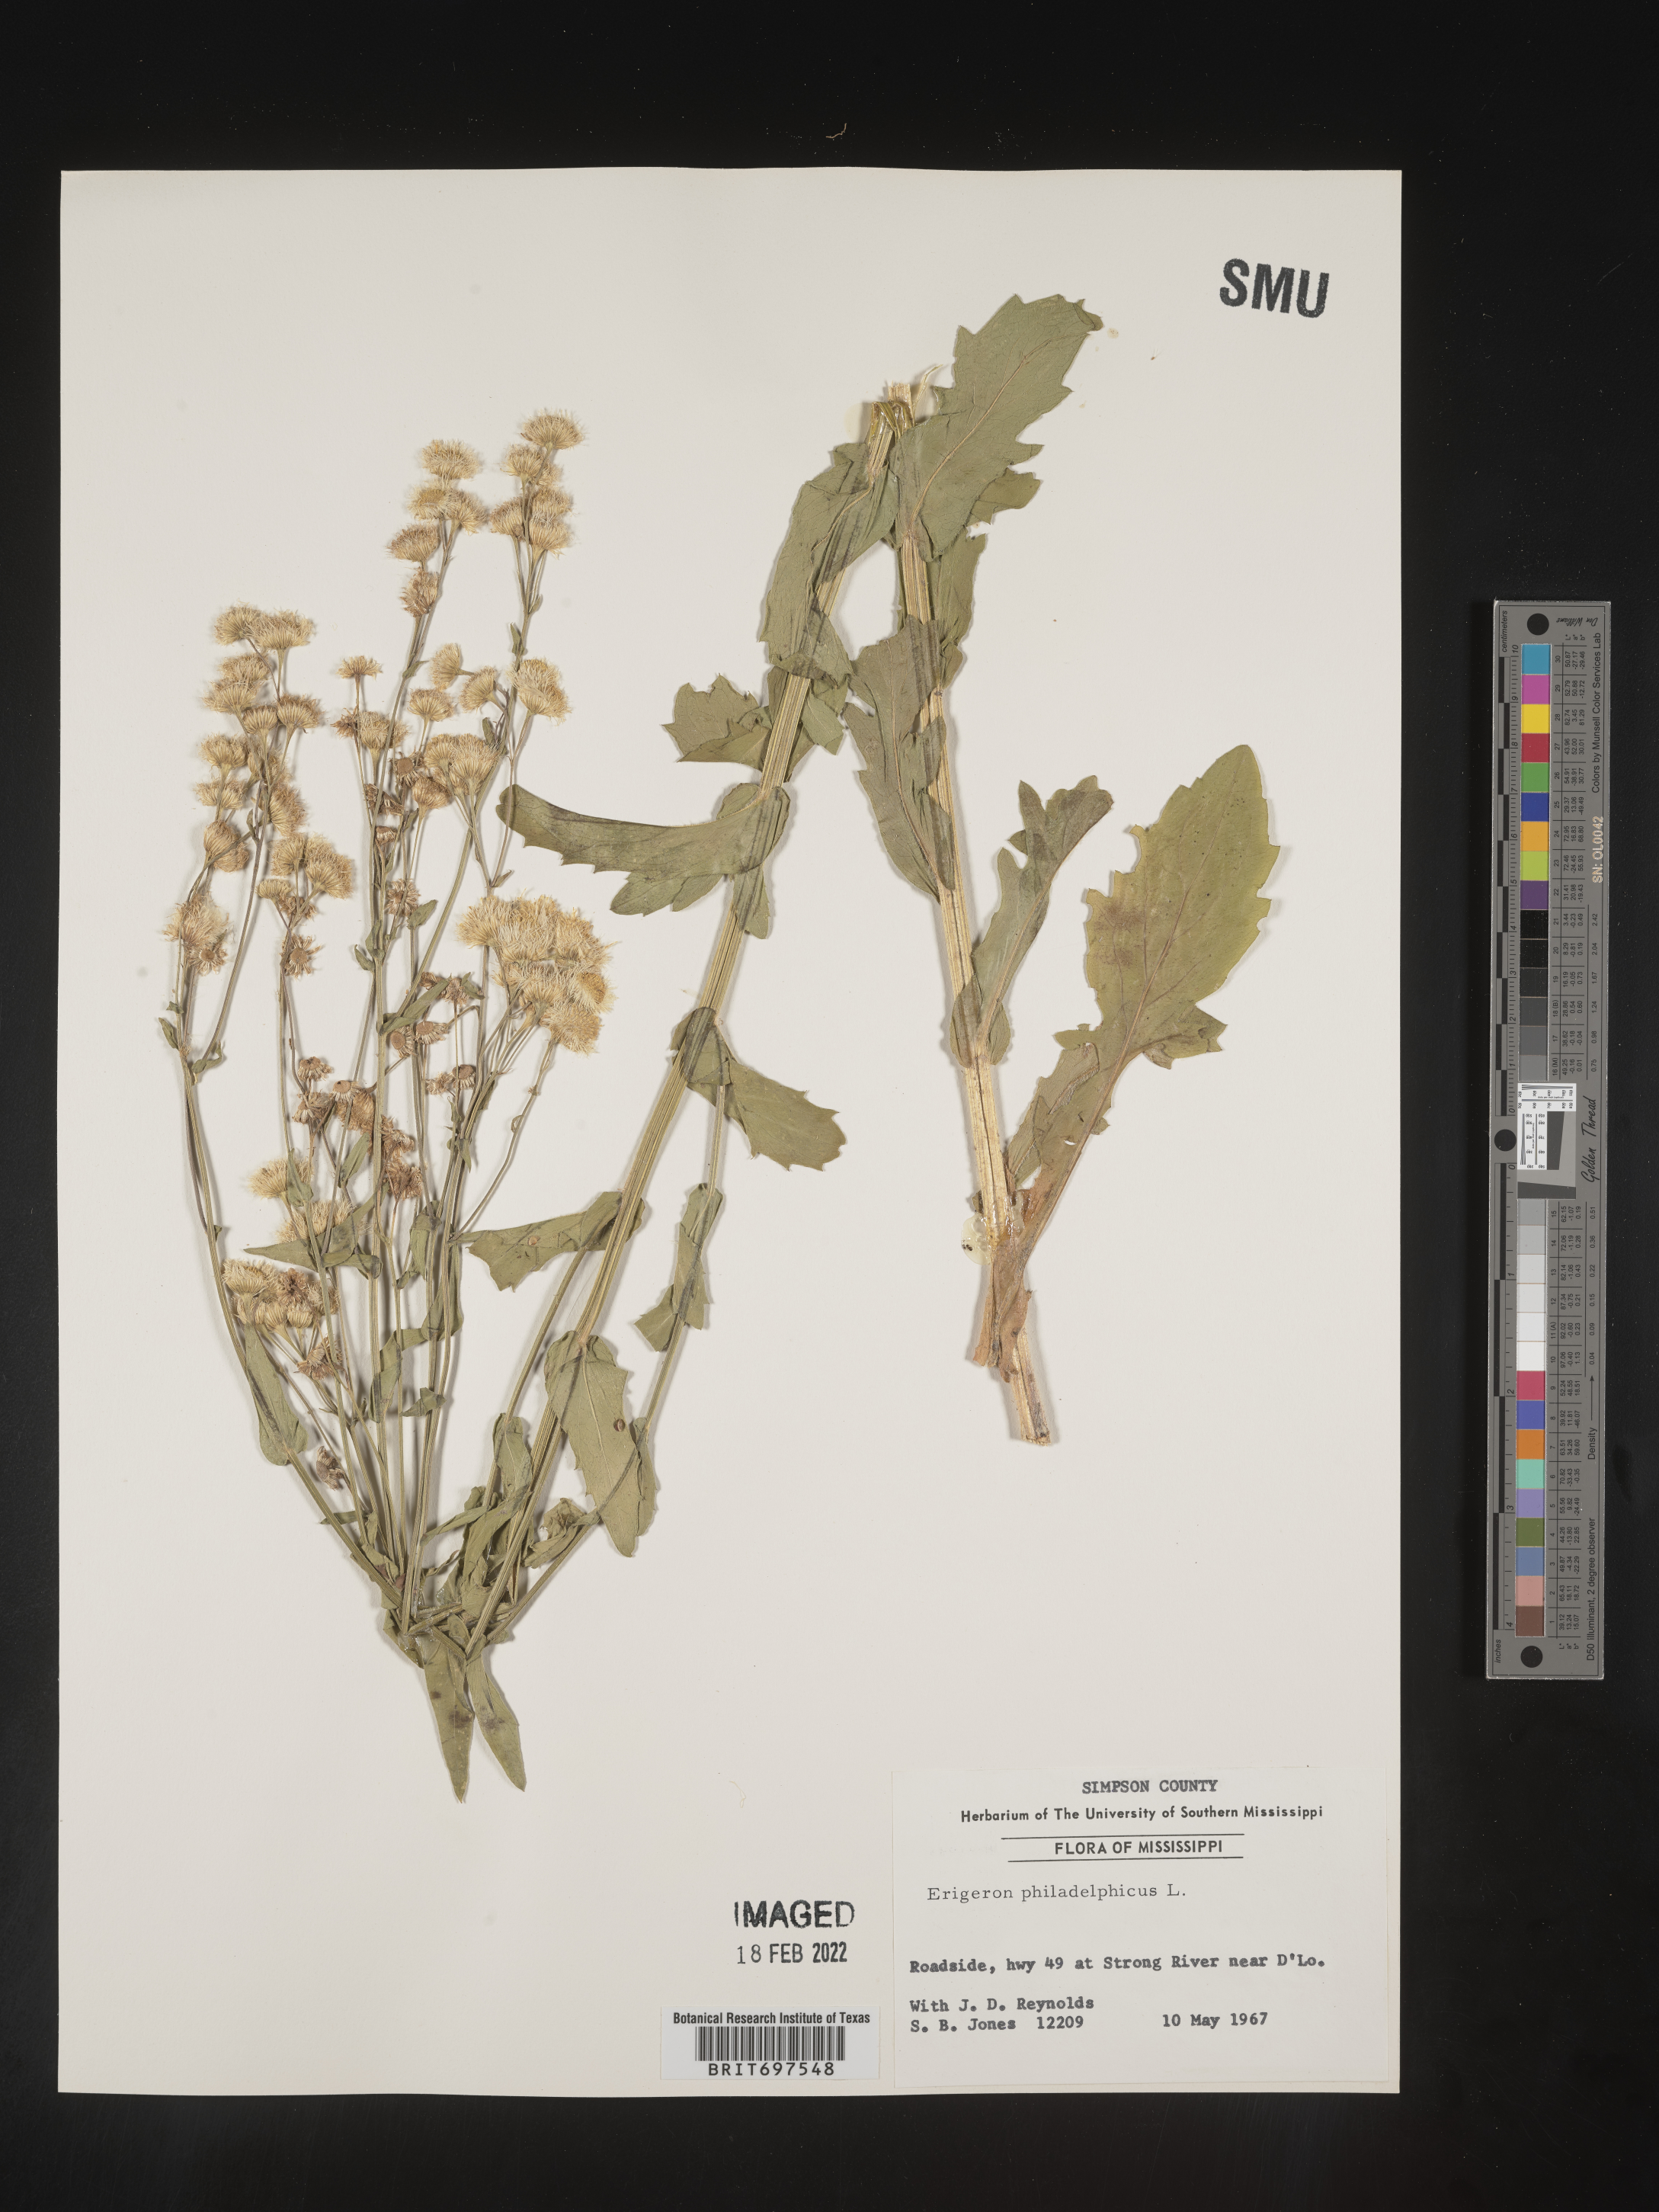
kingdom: Plantae
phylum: Tracheophyta
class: Magnoliopsida
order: Asterales
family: Asteraceae
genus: Erigeron
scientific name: Erigeron philadelphicus
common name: Robin's-plantain
